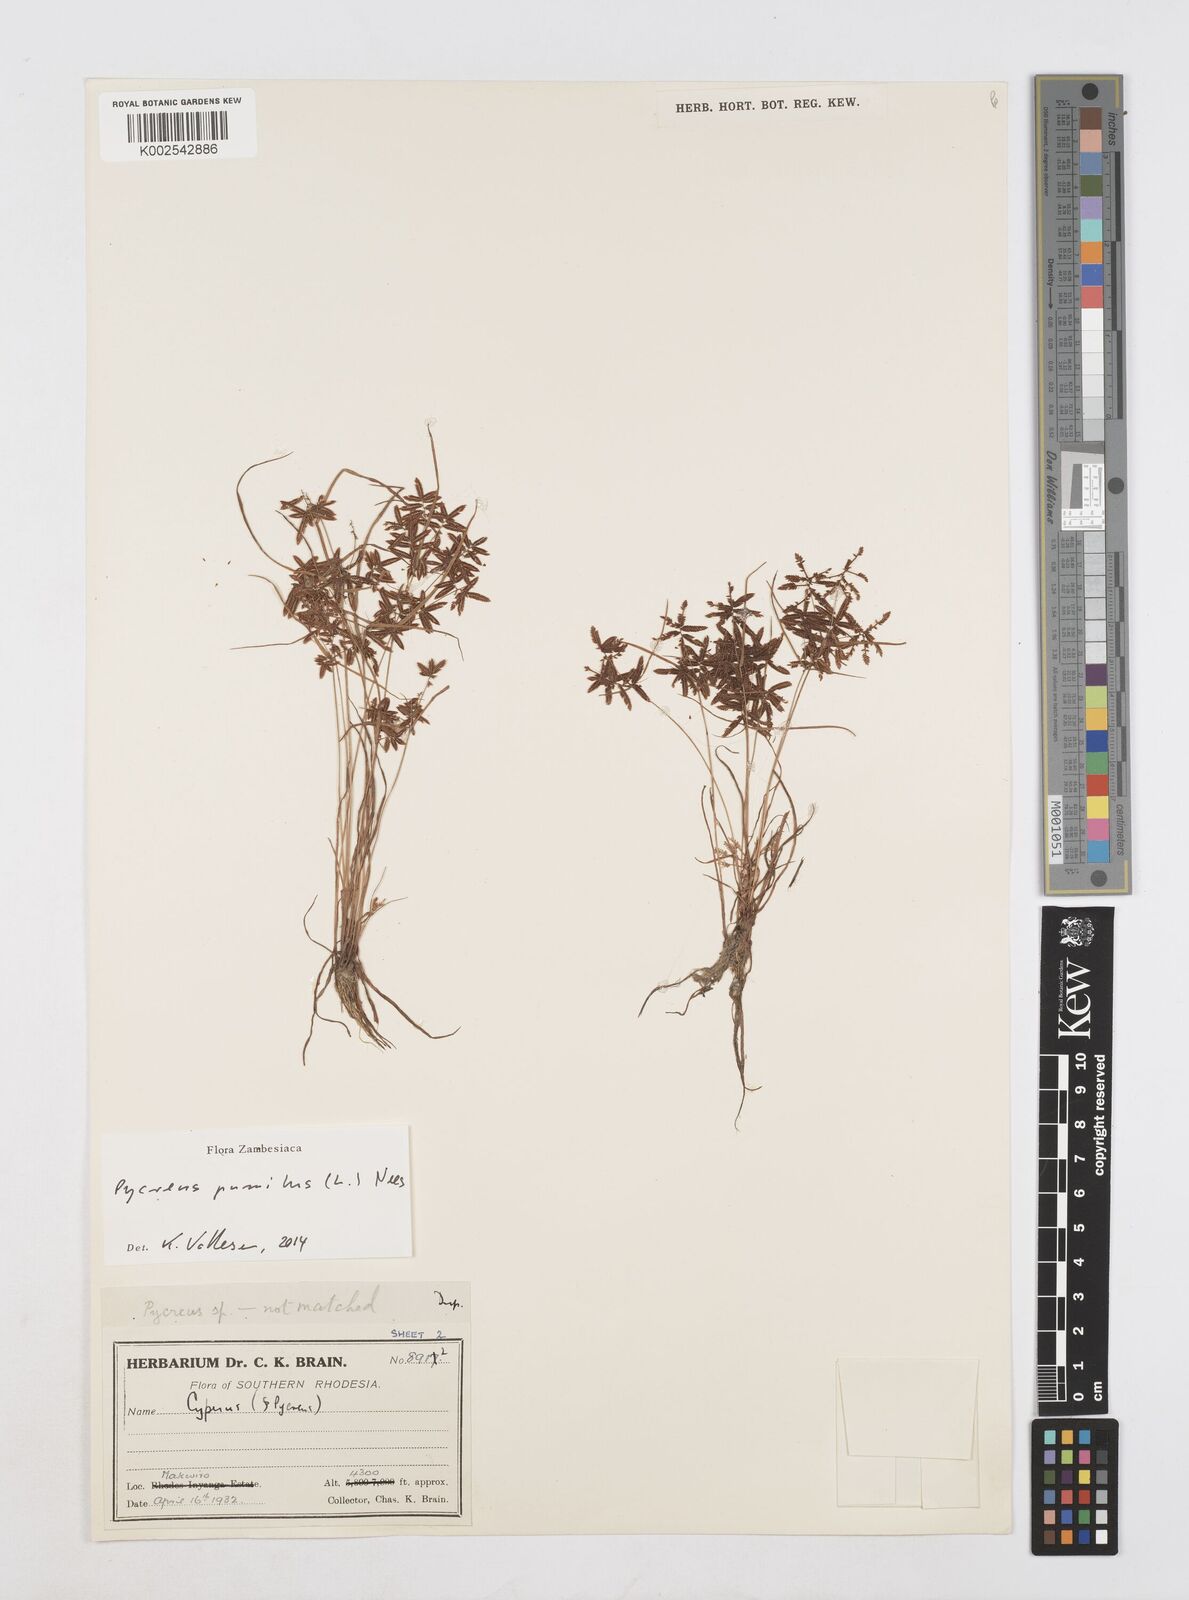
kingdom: Plantae
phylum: Tracheophyta
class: Liliopsida
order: Poales
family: Cyperaceae
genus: Cyperus
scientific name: Cyperus pumilus
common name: Low flatsedge
